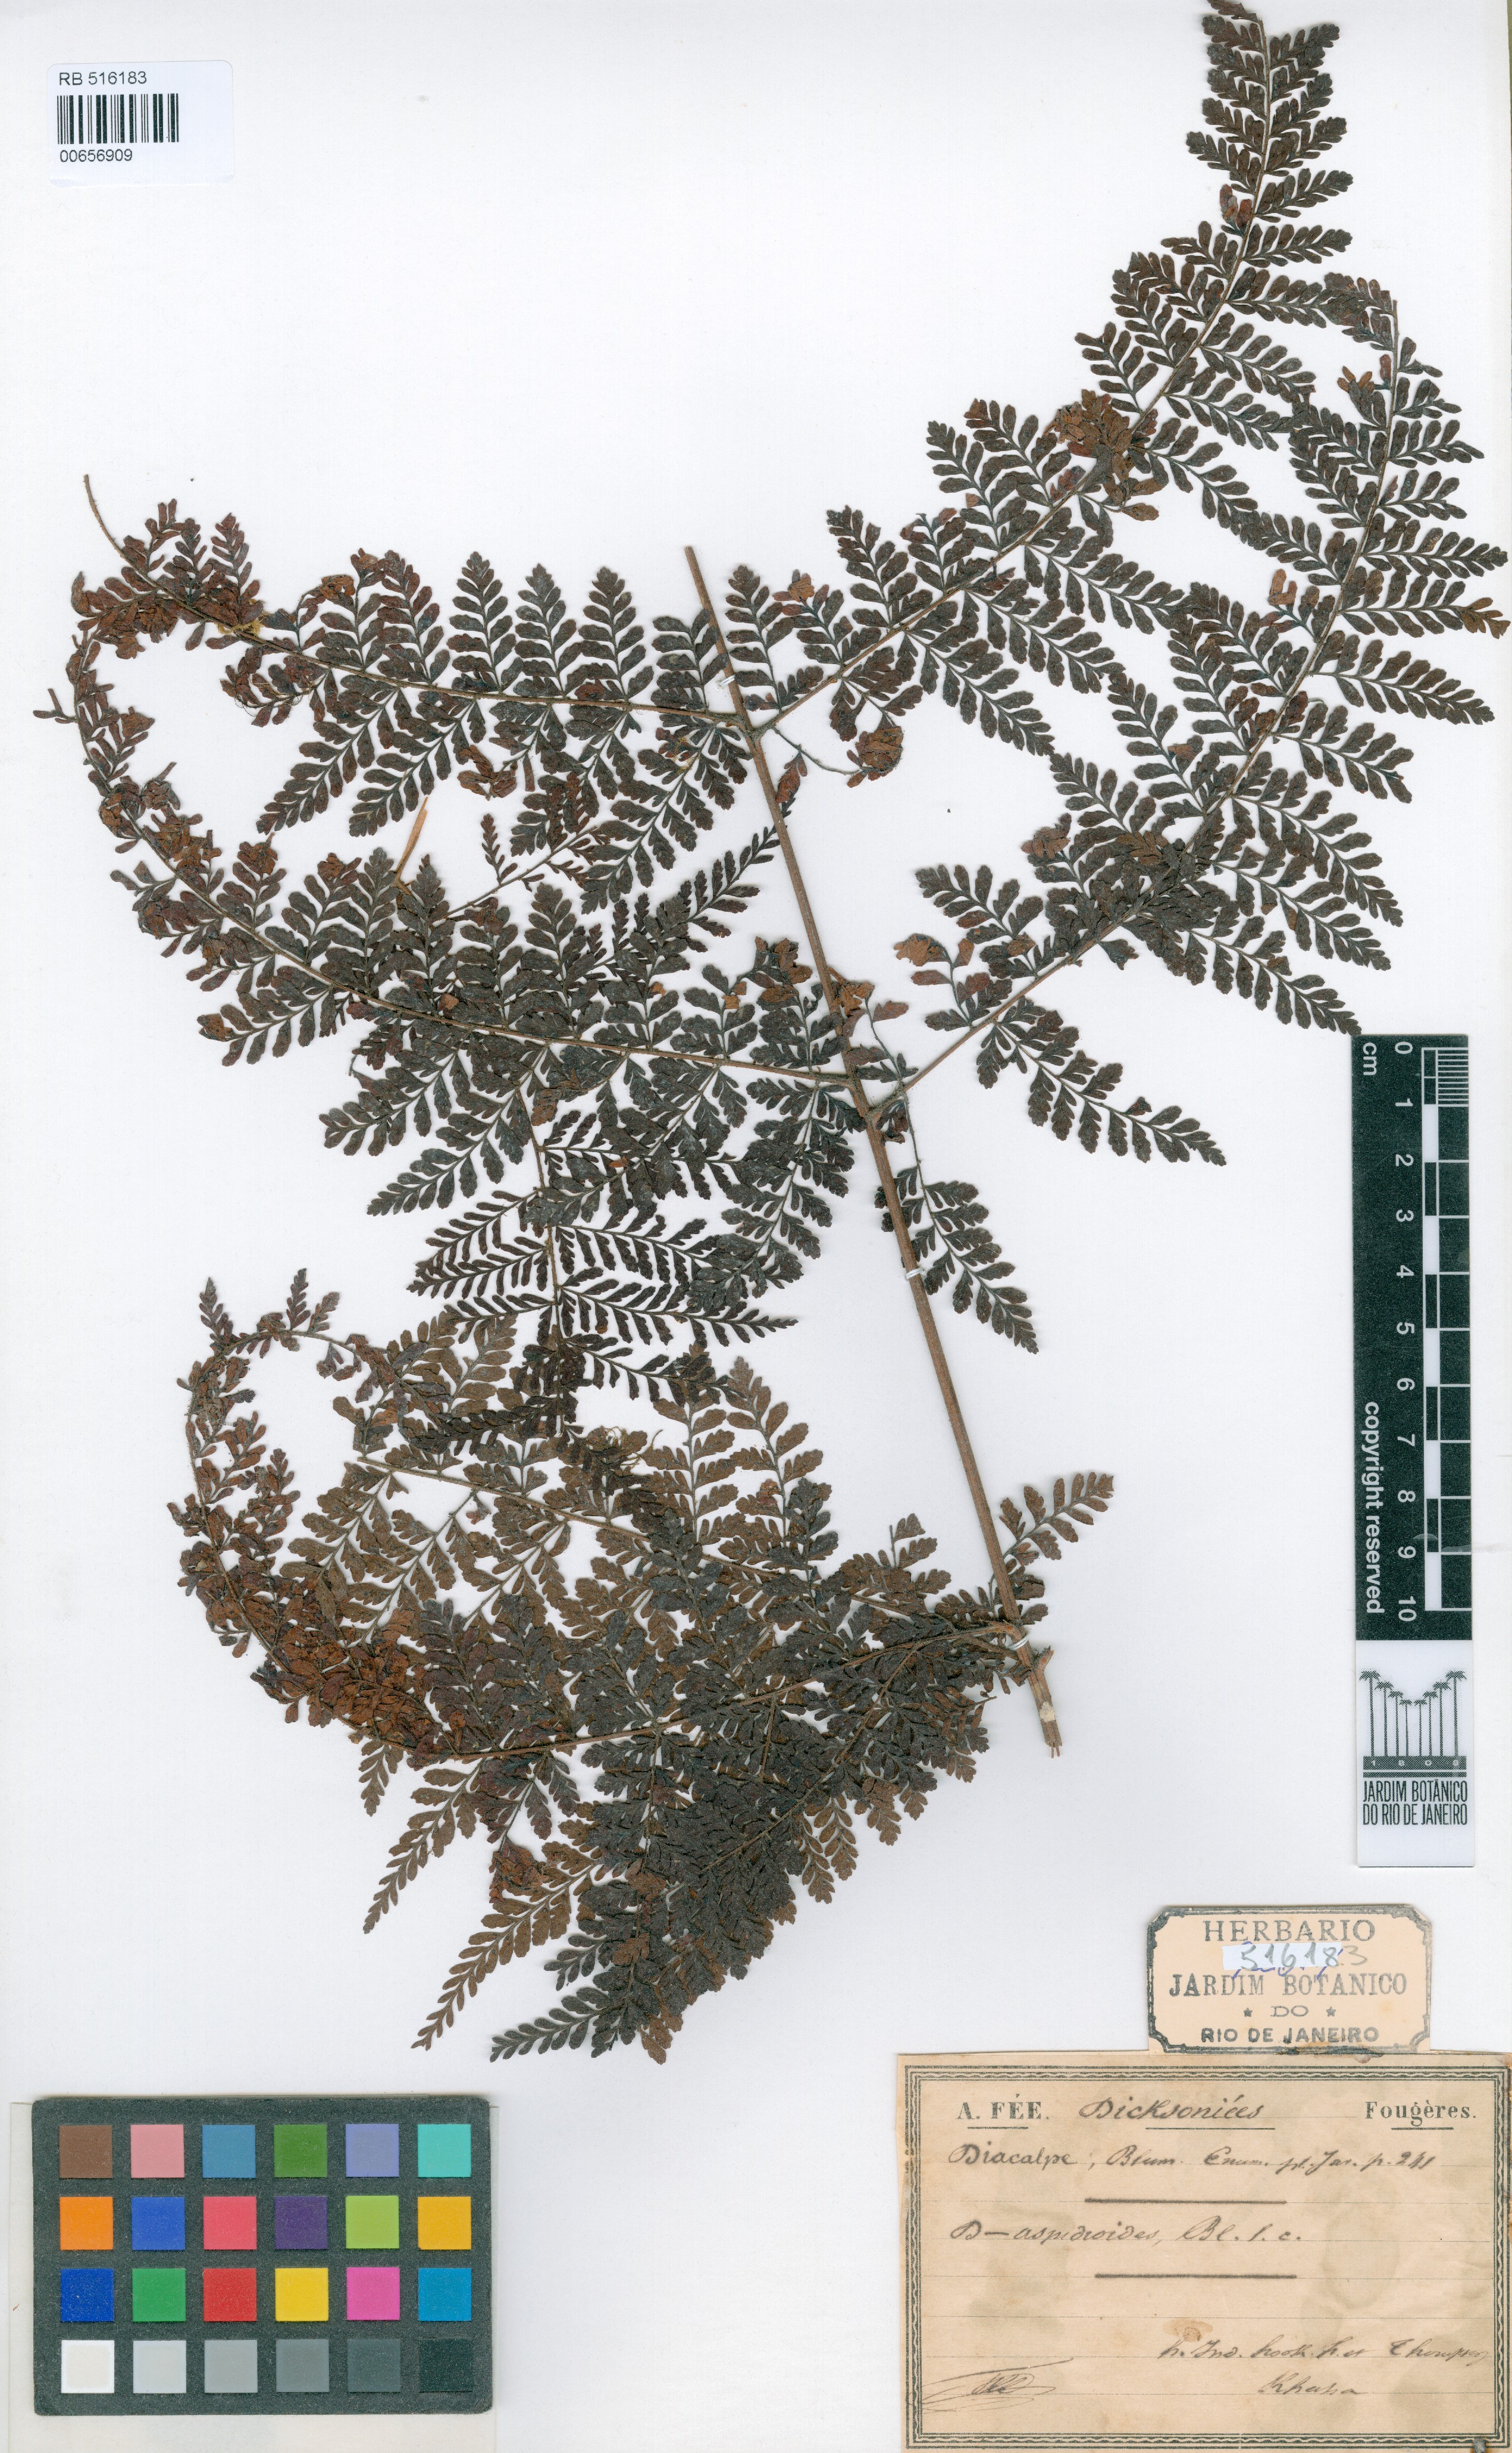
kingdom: Plantae
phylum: Tracheophyta
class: Polypodiopsida
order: Polypodiales
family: Dryopteridaceae
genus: Dryopteris
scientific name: Dryopteris pseudocaenopteris
